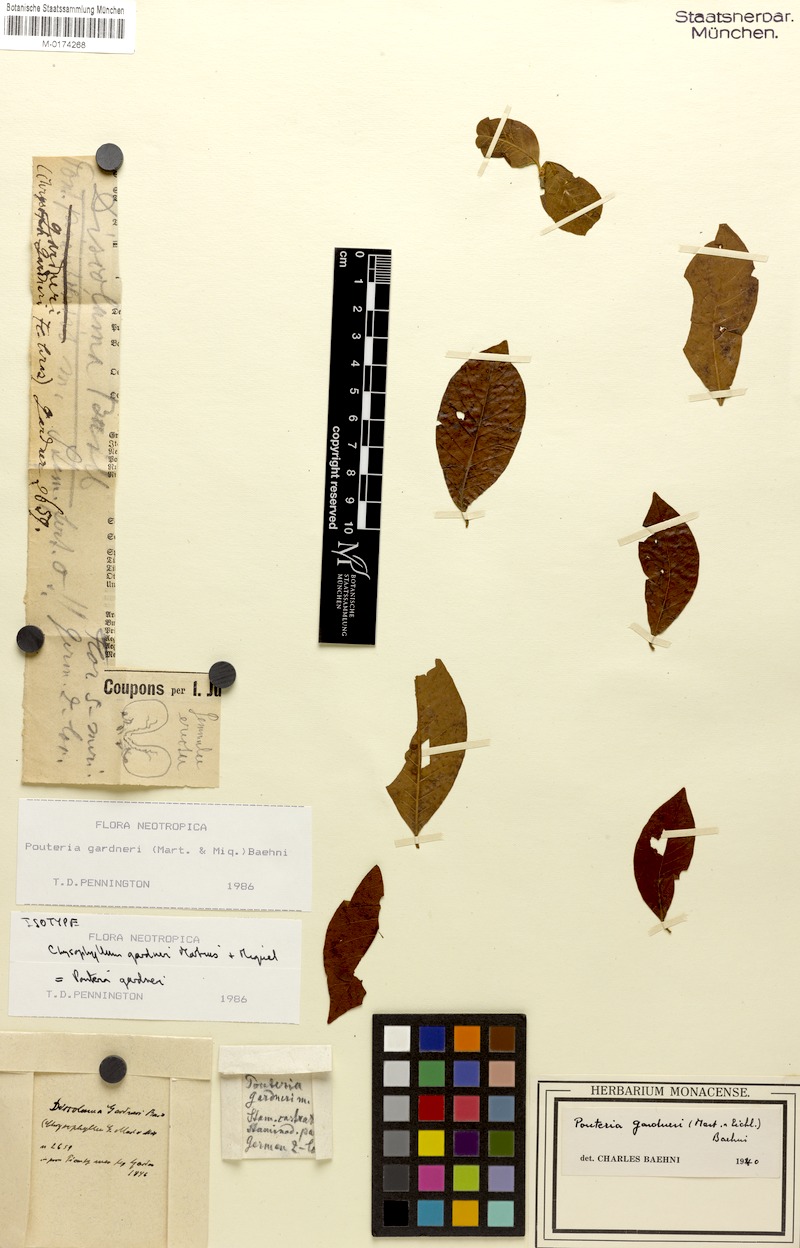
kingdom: Plantae
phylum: Tracheophyta
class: Magnoliopsida
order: Ericales
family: Sapotaceae
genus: Pouteria
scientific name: Pouteria gardneri
